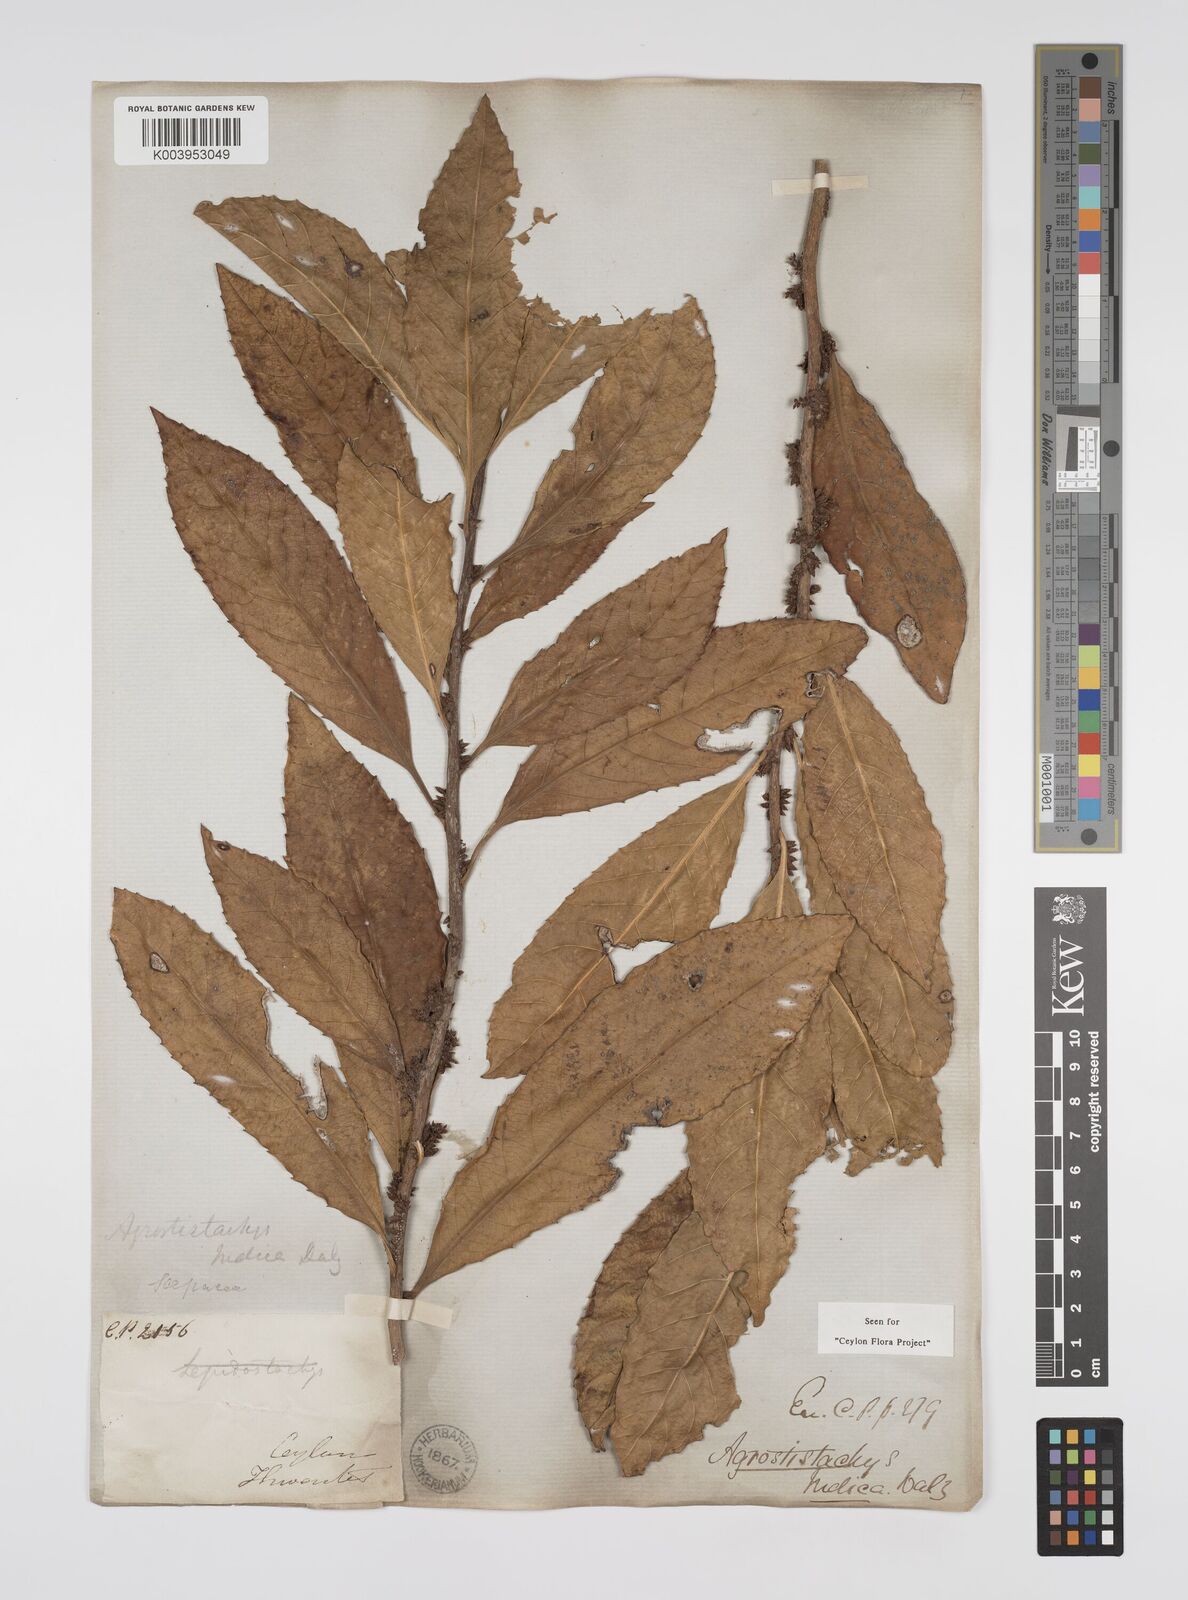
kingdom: Plantae
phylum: Tracheophyta
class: Magnoliopsida
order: Malpighiales
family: Euphorbiaceae
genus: Agrostistachys
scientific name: Agrostistachys indica
